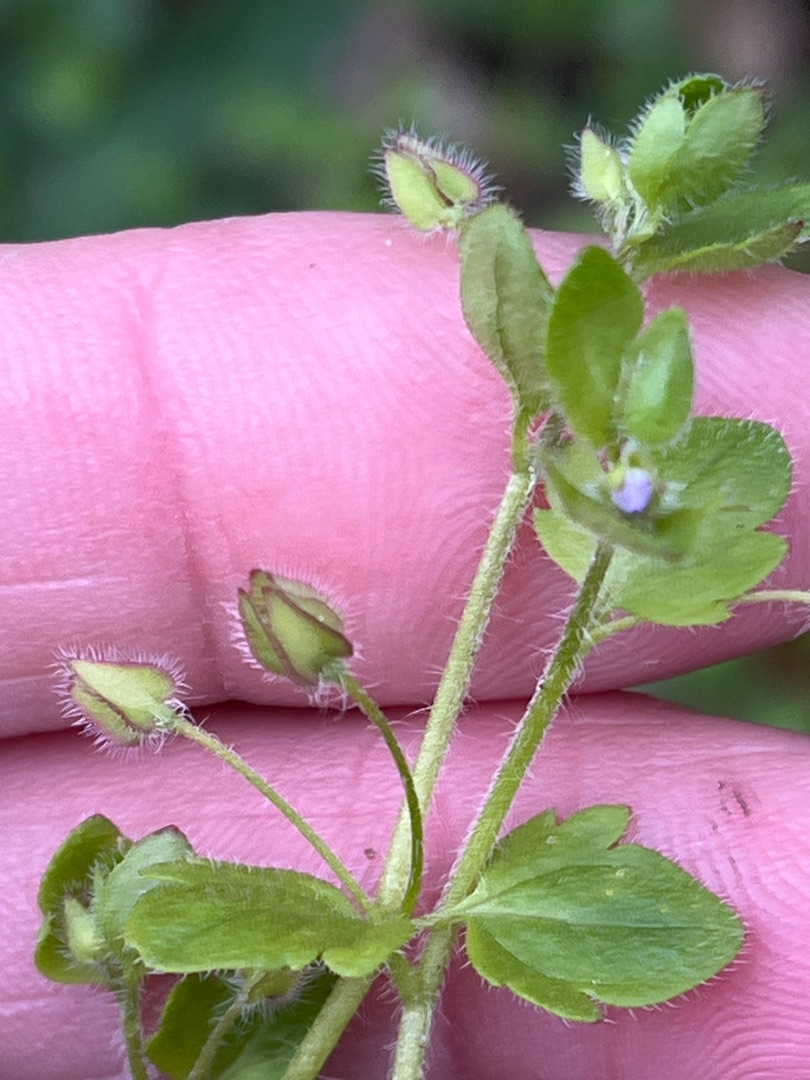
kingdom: Plantae
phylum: Tracheophyta
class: Magnoliopsida
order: Lamiales
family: Plantaginaceae
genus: Veronica
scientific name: Veronica sublobata
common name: Krat-ærenpris
